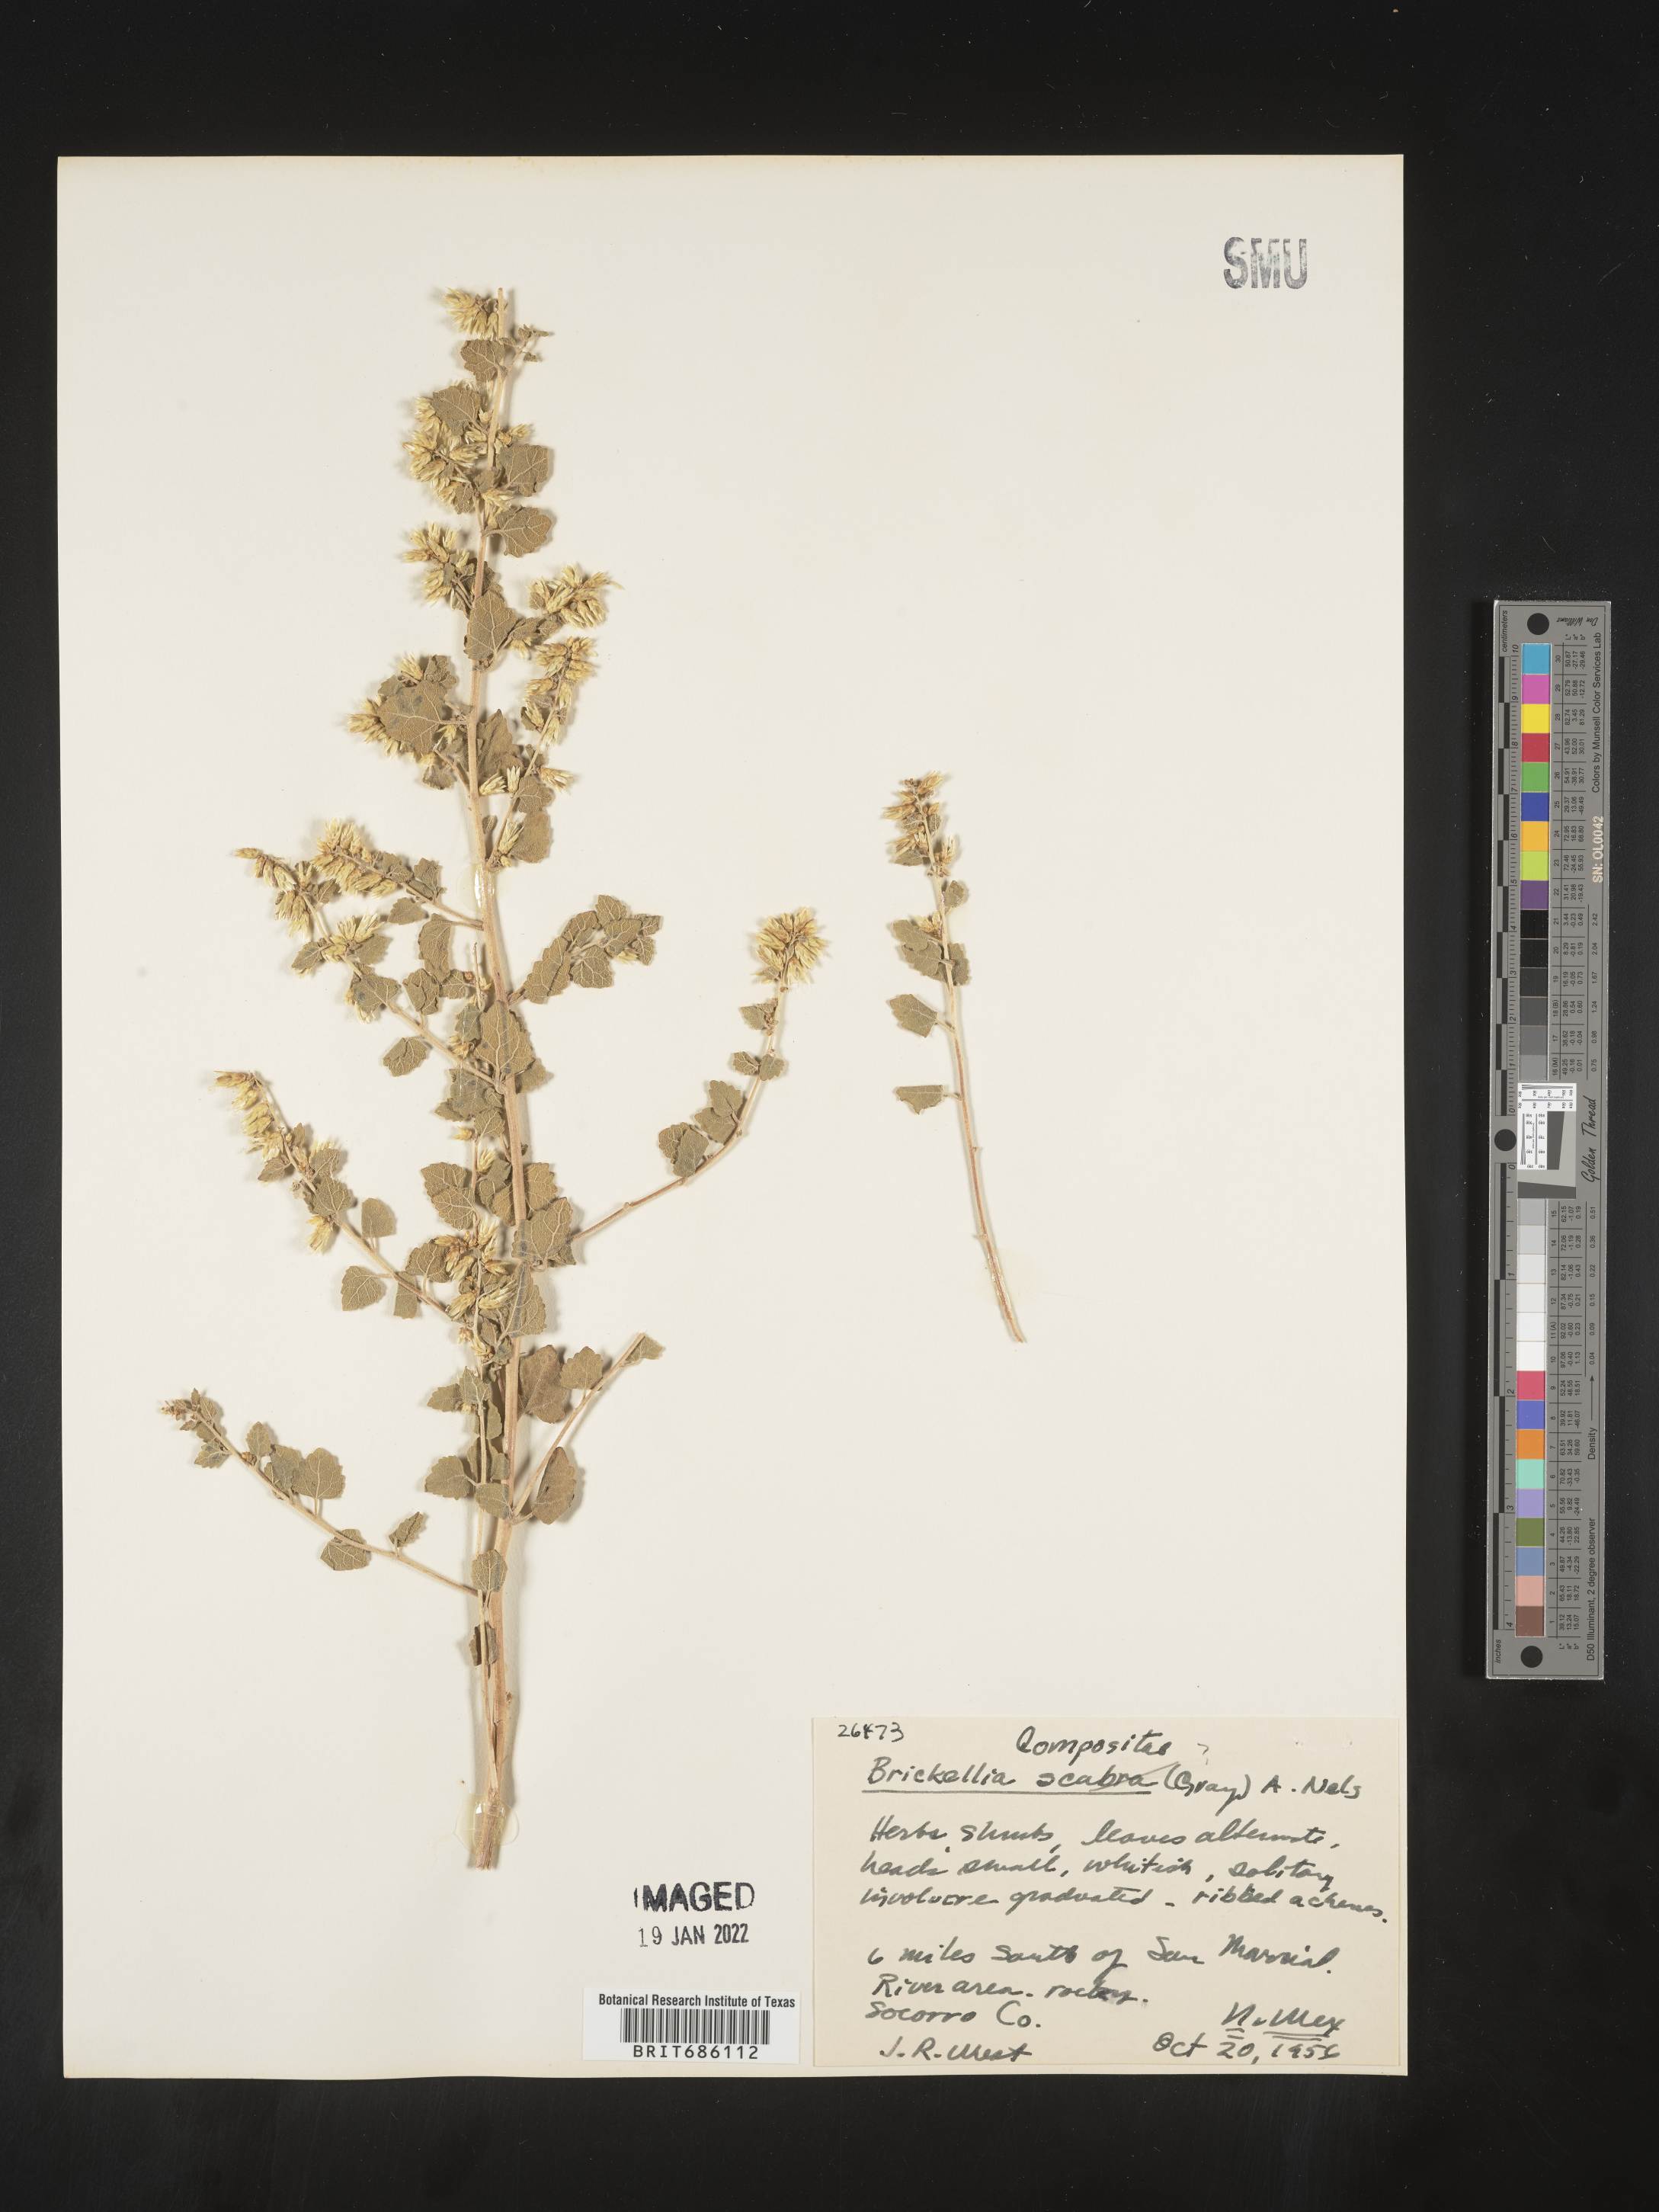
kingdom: Plantae
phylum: Tracheophyta
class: Magnoliopsida
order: Asterales
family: Asteraceae
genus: Brickellia
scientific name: Brickellia microphylla
